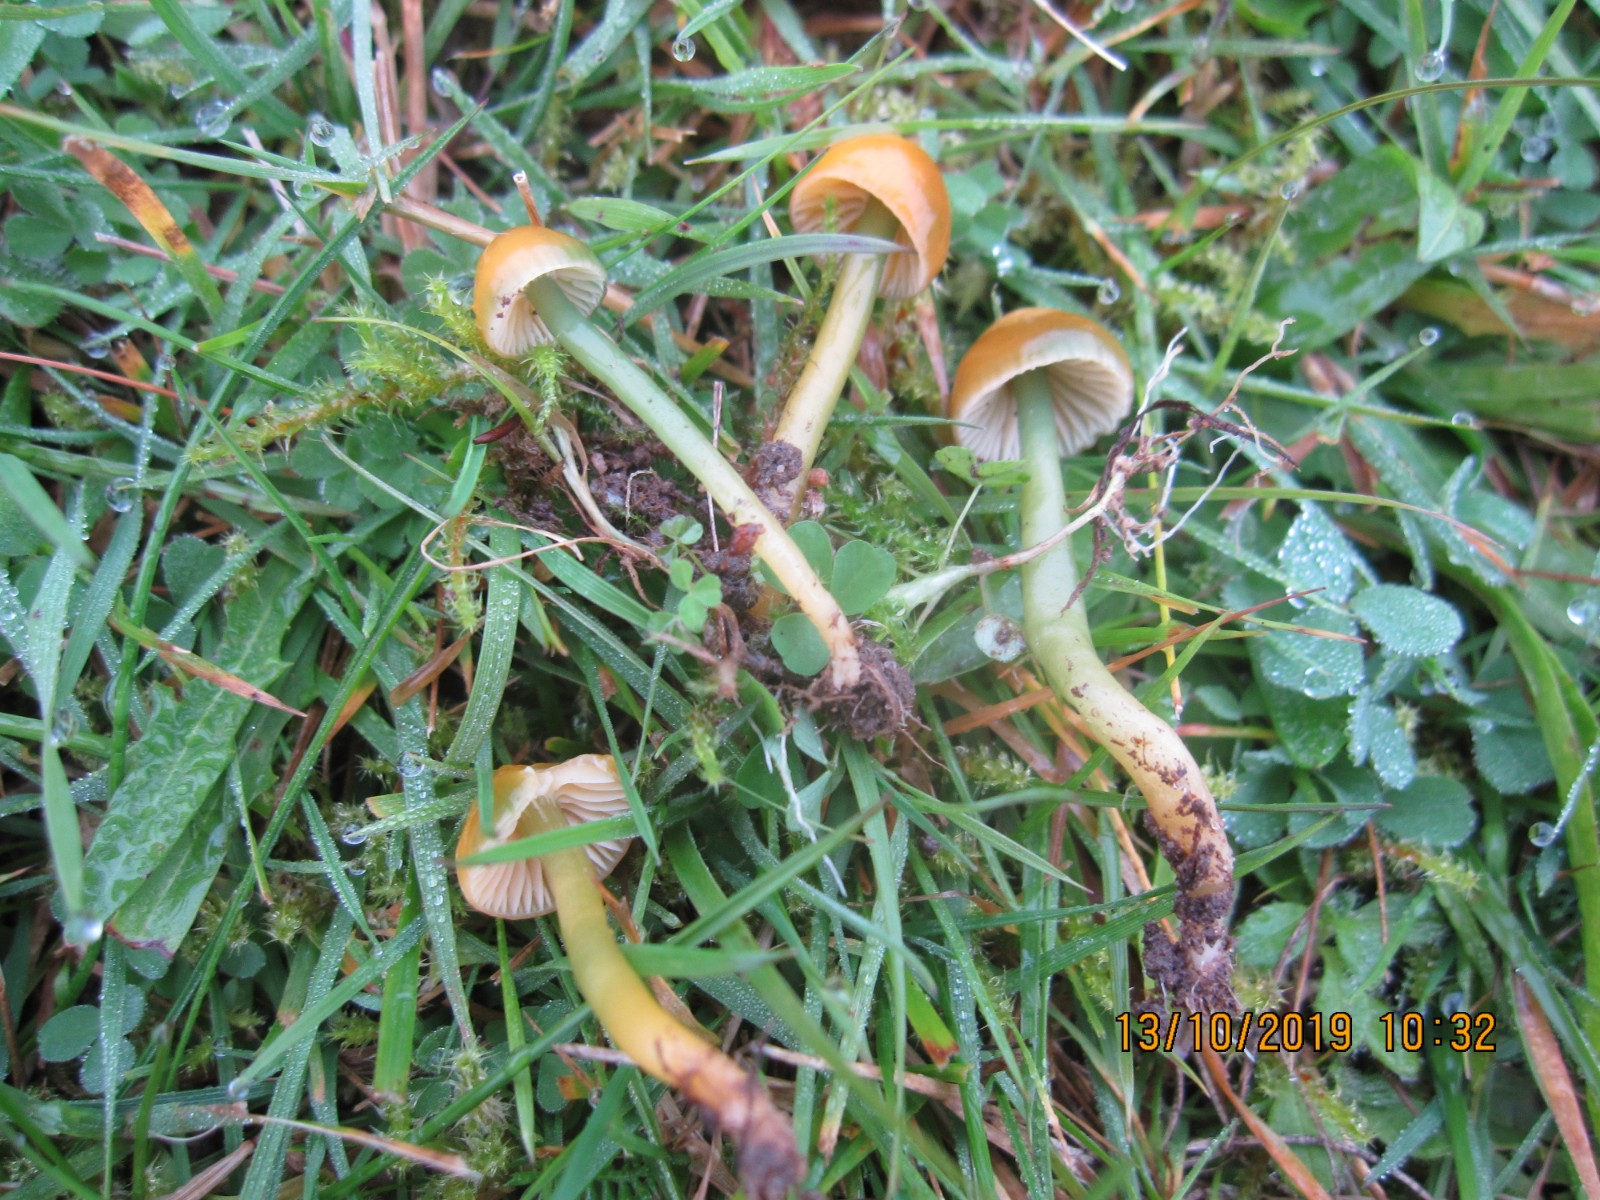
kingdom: Fungi
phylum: Basidiomycota
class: Agaricomycetes
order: Agaricales
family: Hygrophoraceae
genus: Gliophorus
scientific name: Gliophorus psittacinus
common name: papegøje-vokshat
